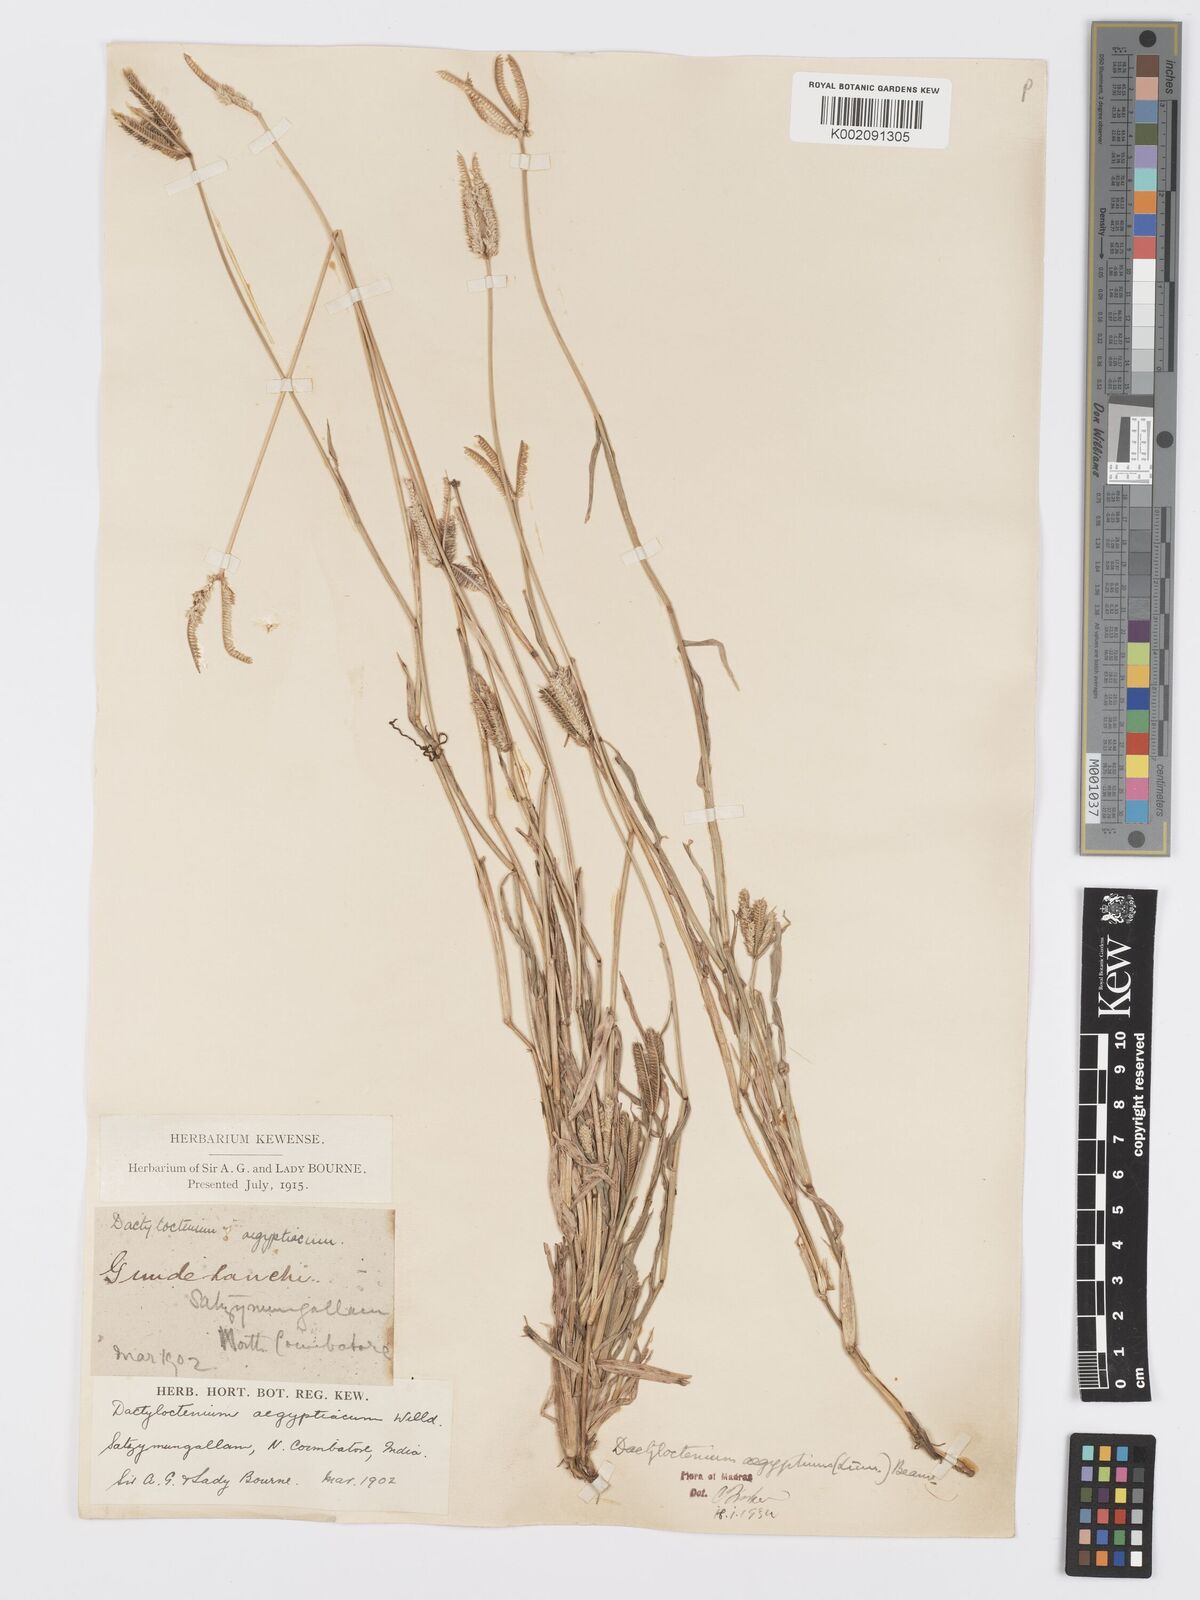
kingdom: Plantae
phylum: Tracheophyta
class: Liliopsida
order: Poales
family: Poaceae
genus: Dactyloctenium
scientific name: Dactyloctenium aegyptium
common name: Egyptian grass
